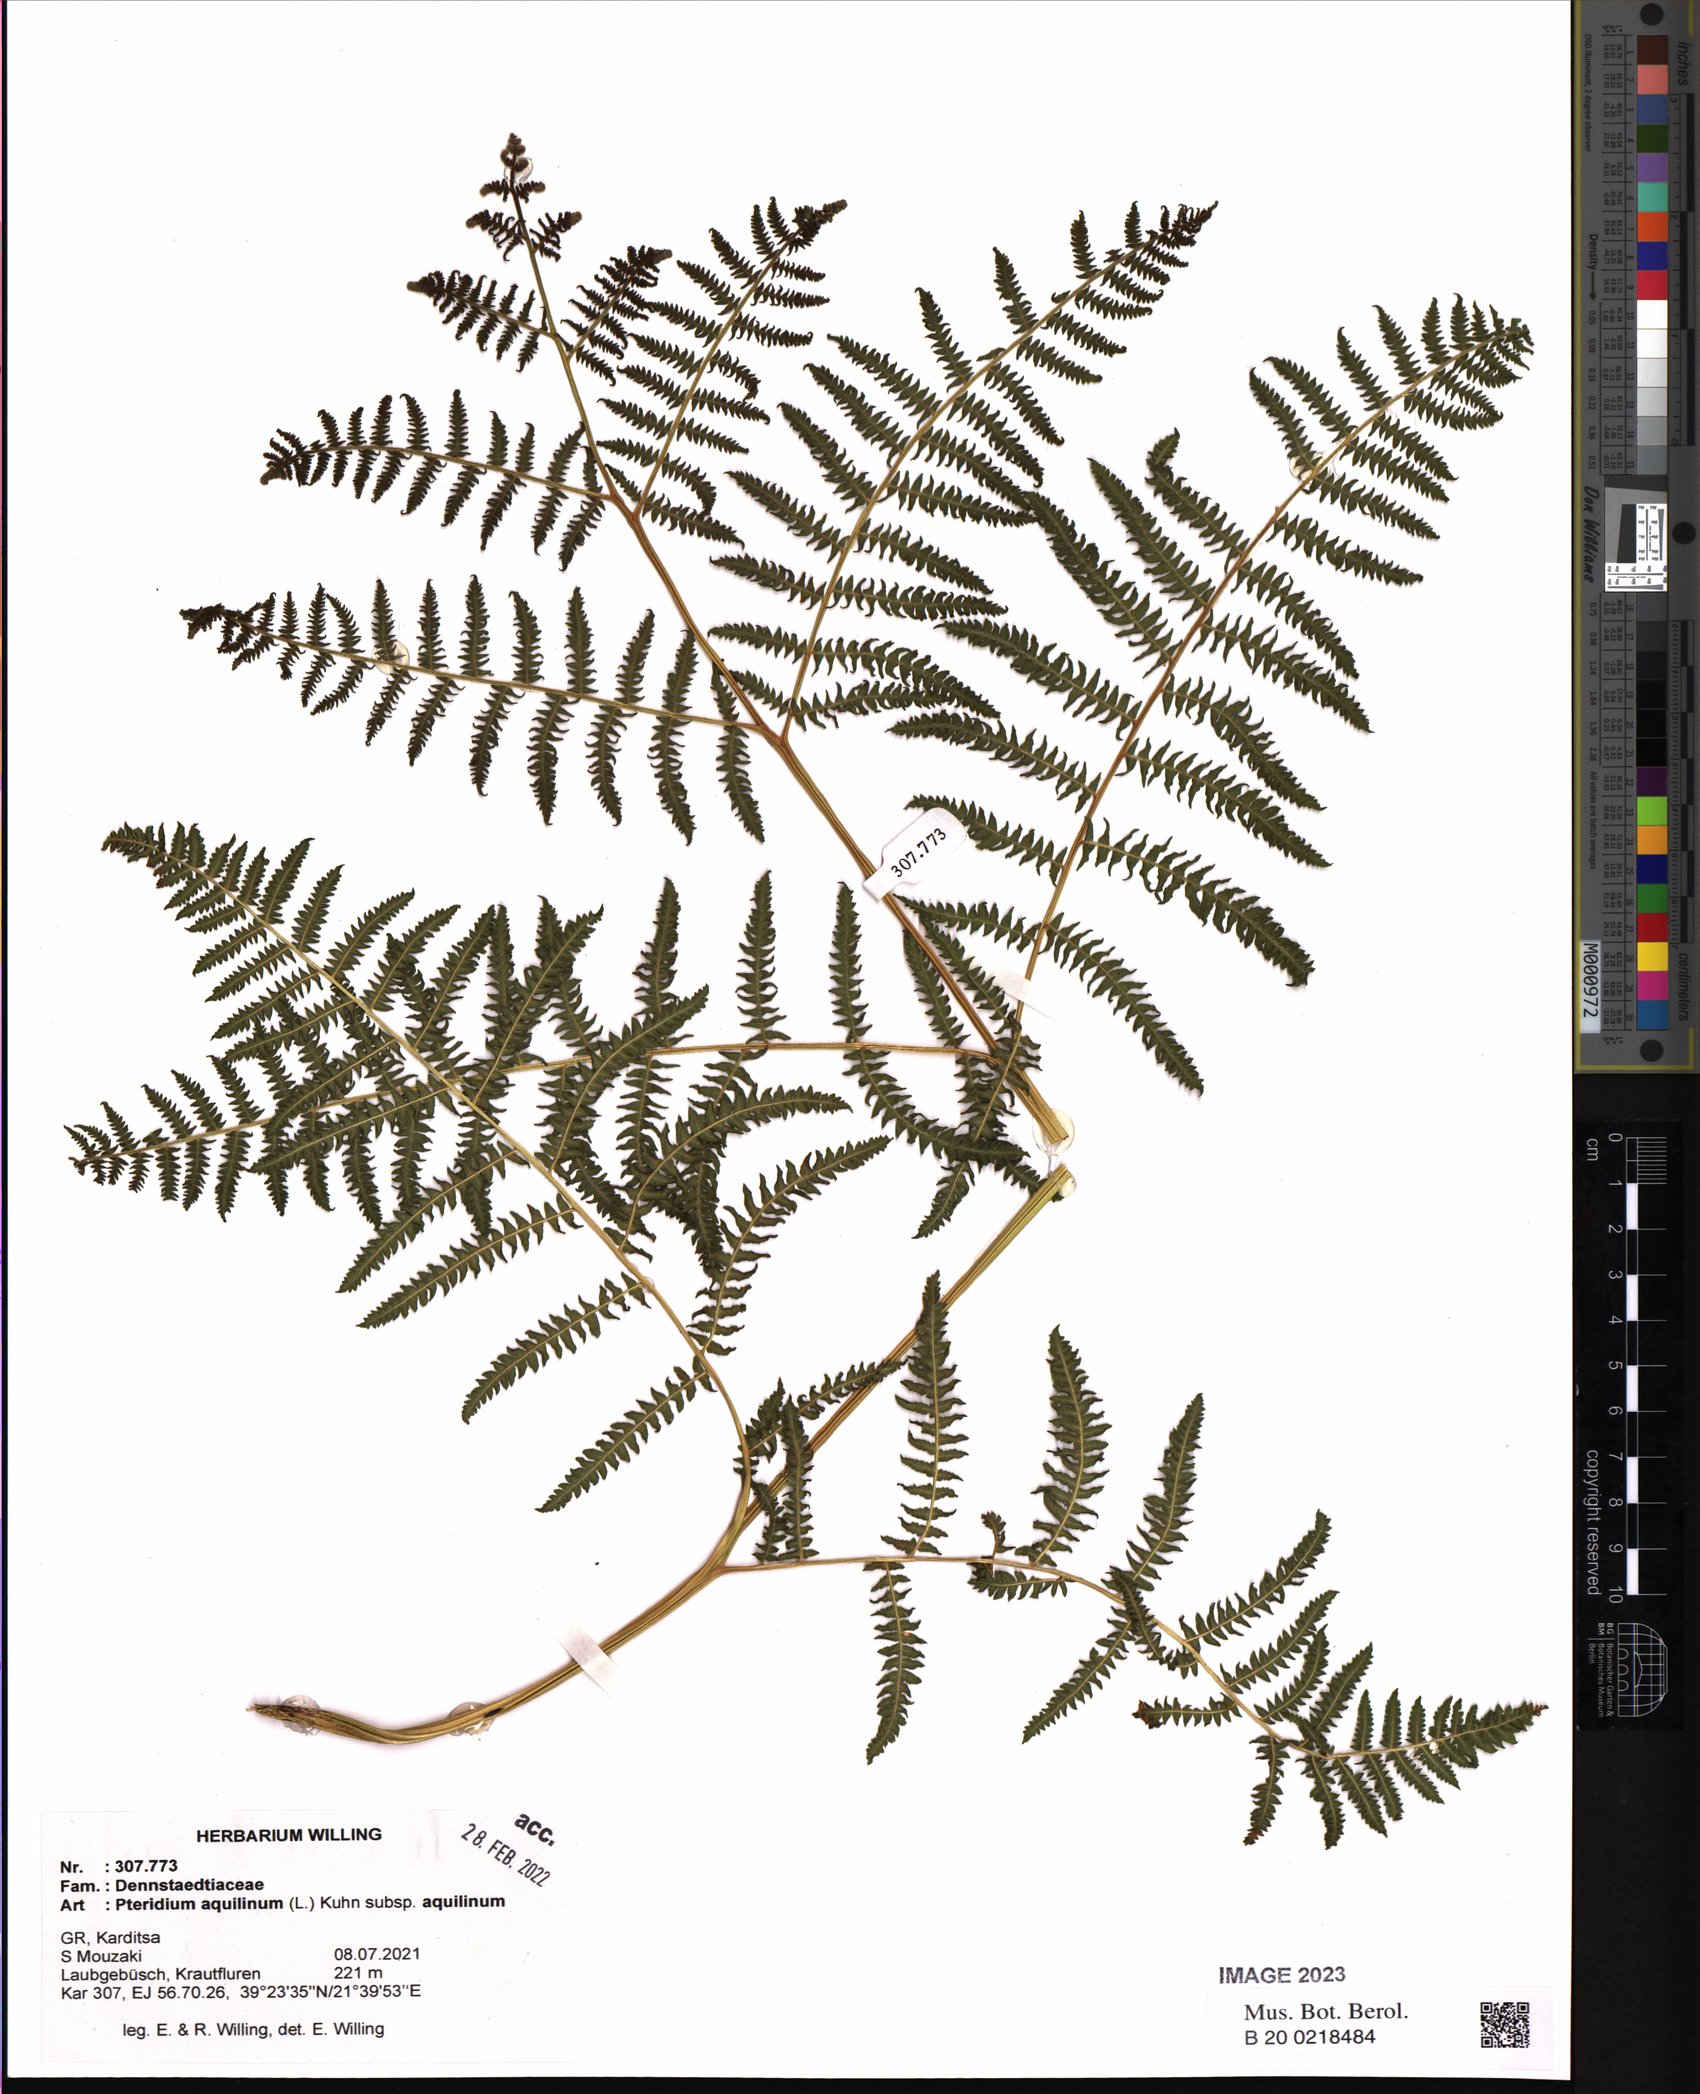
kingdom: Plantae
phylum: Tracheophyta
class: Polypodiopsida
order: Polypodiales
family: Dennstaedtiaceae
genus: Pteridium
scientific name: Pteridium aquilinum
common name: Bracken
